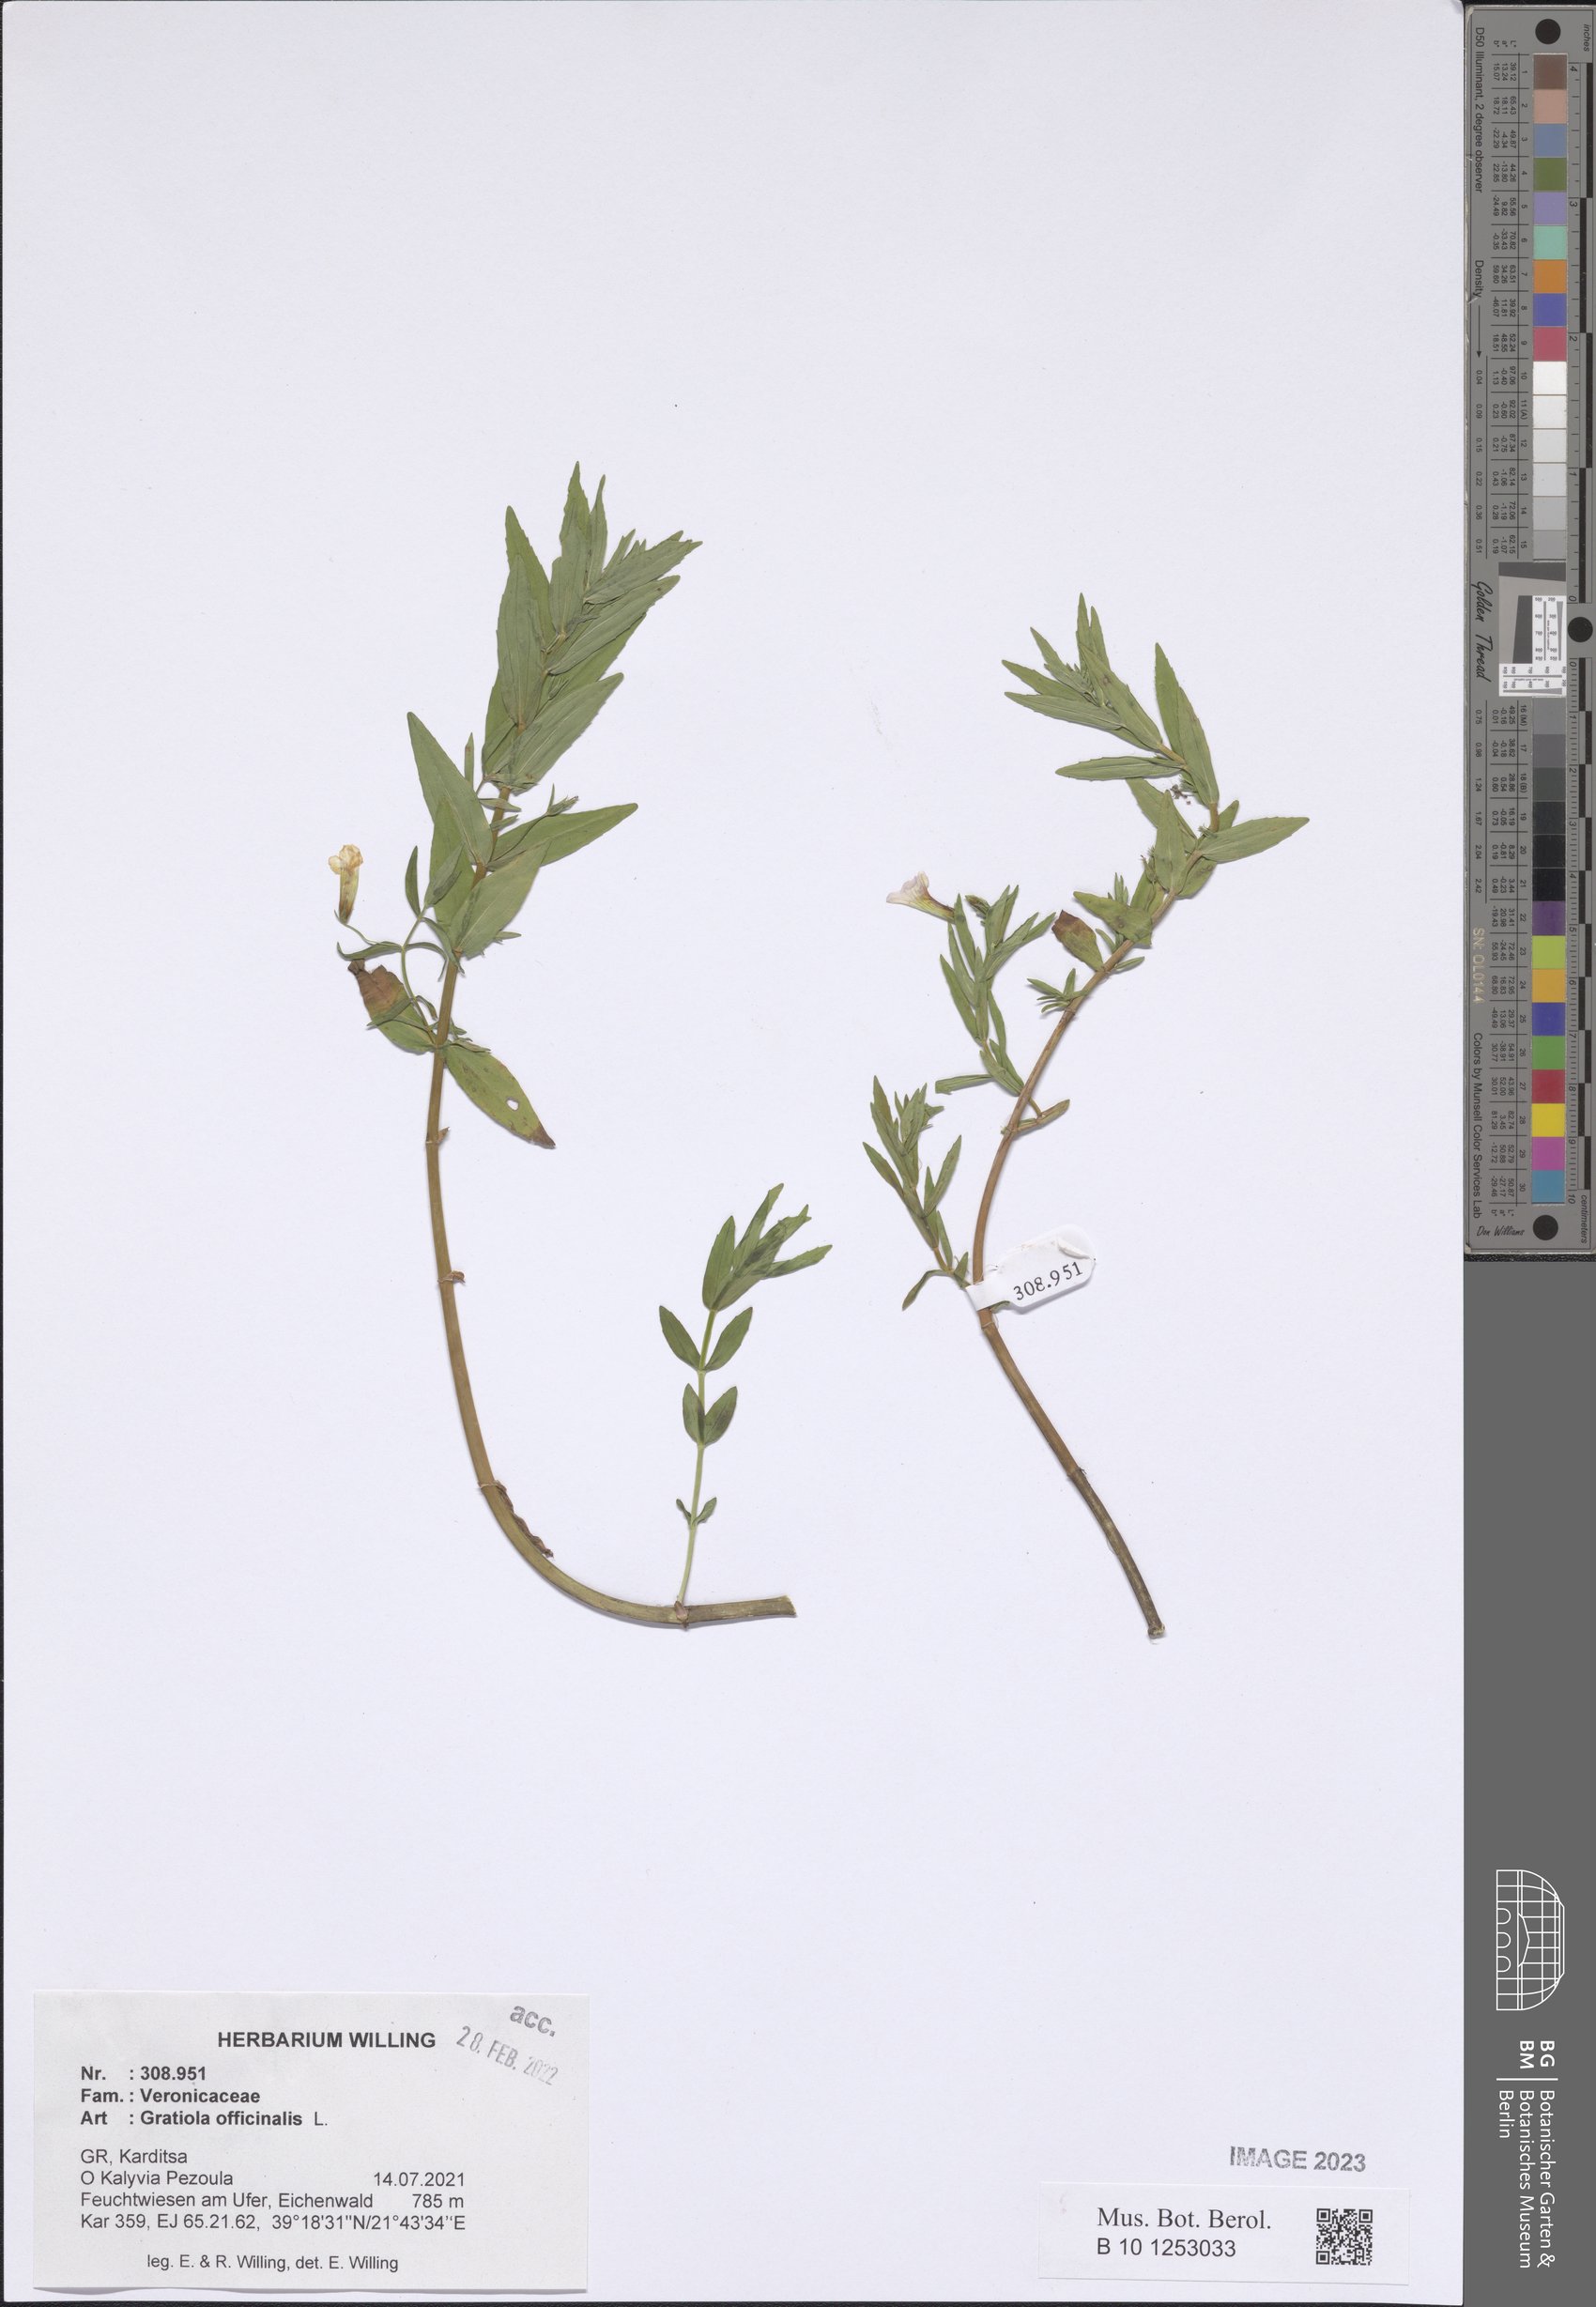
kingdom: Plantae
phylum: Tracheophyta
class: Magnoliopsida
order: Lamiales
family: Plantaginaceae
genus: Gratiola
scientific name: Gratiola officinalis
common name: Gratiola
